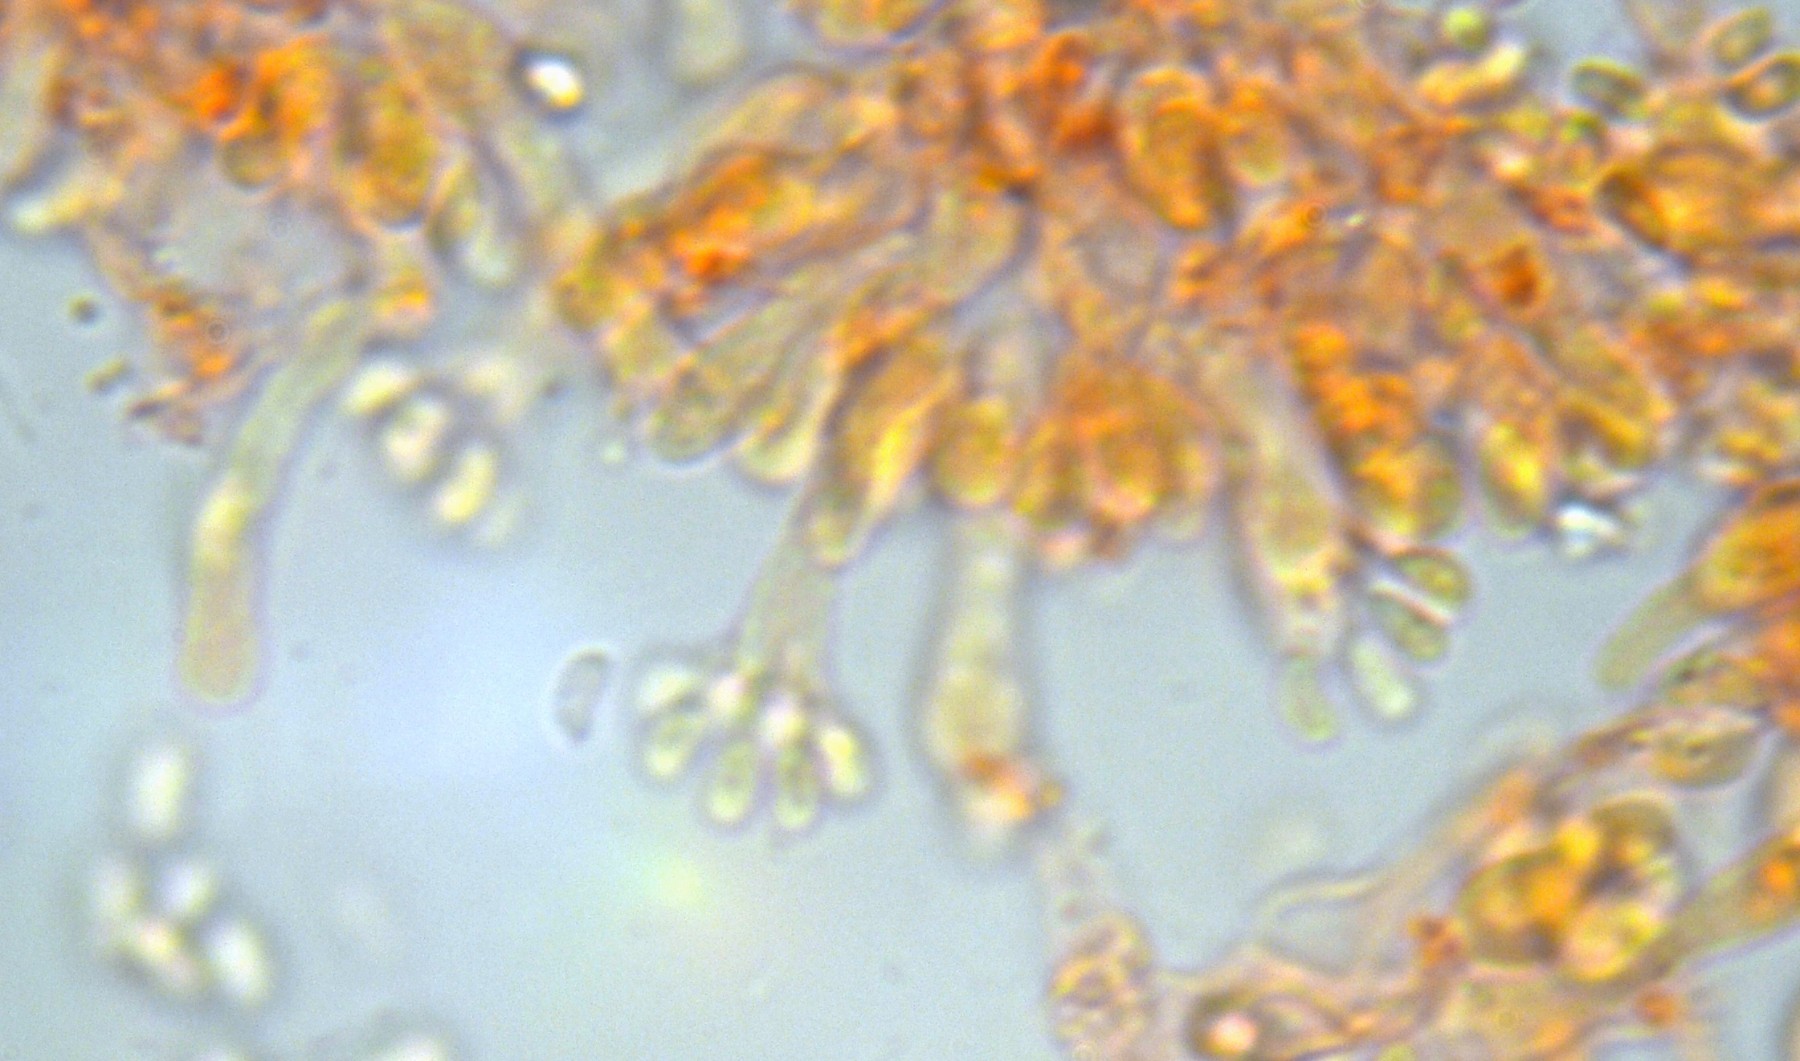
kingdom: Fungi
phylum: Basidiomycota
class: Agaricomycetes
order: Cantharellales
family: Hydnaceae
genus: Sistotrema
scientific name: Sistotrema brinkmannii
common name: bønnesporet kroneskorpe
